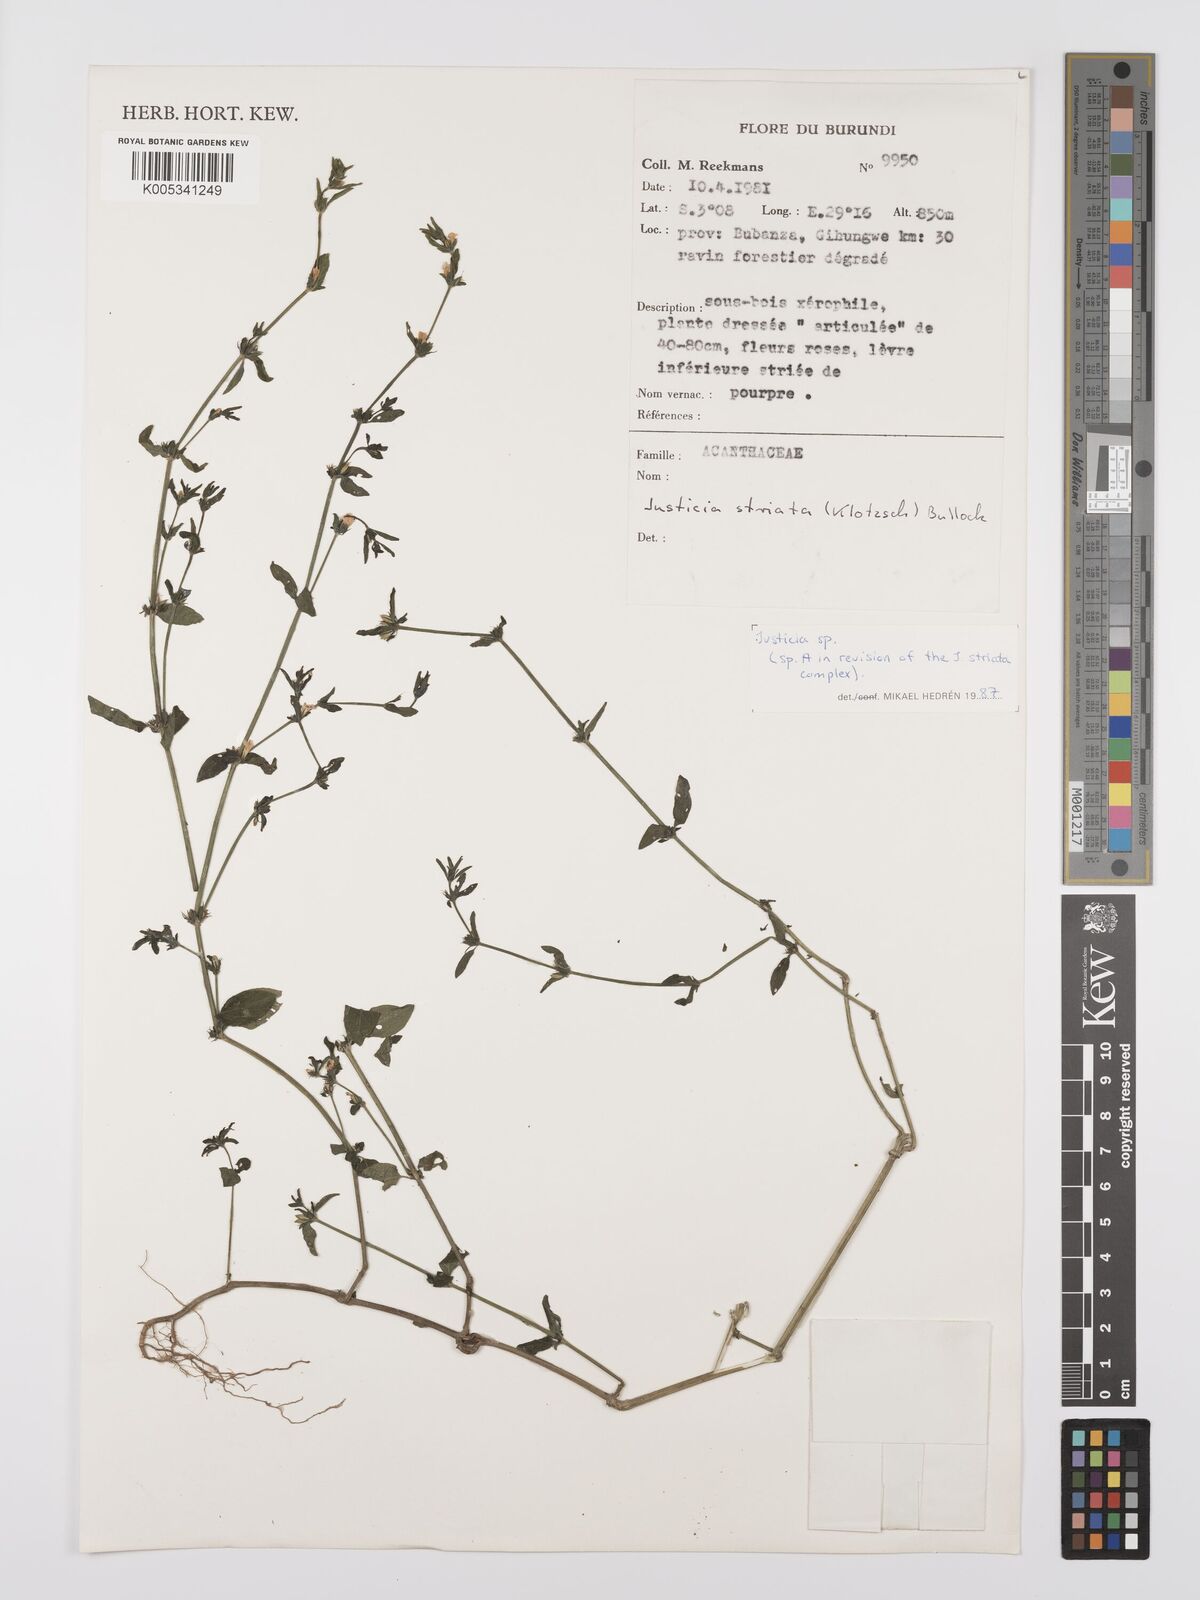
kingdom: Plantae
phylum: Tracheophyta
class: Magnoliopsida
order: Lamiales
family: Acanthaceae
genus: Justicia
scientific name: Justicia boaleri
